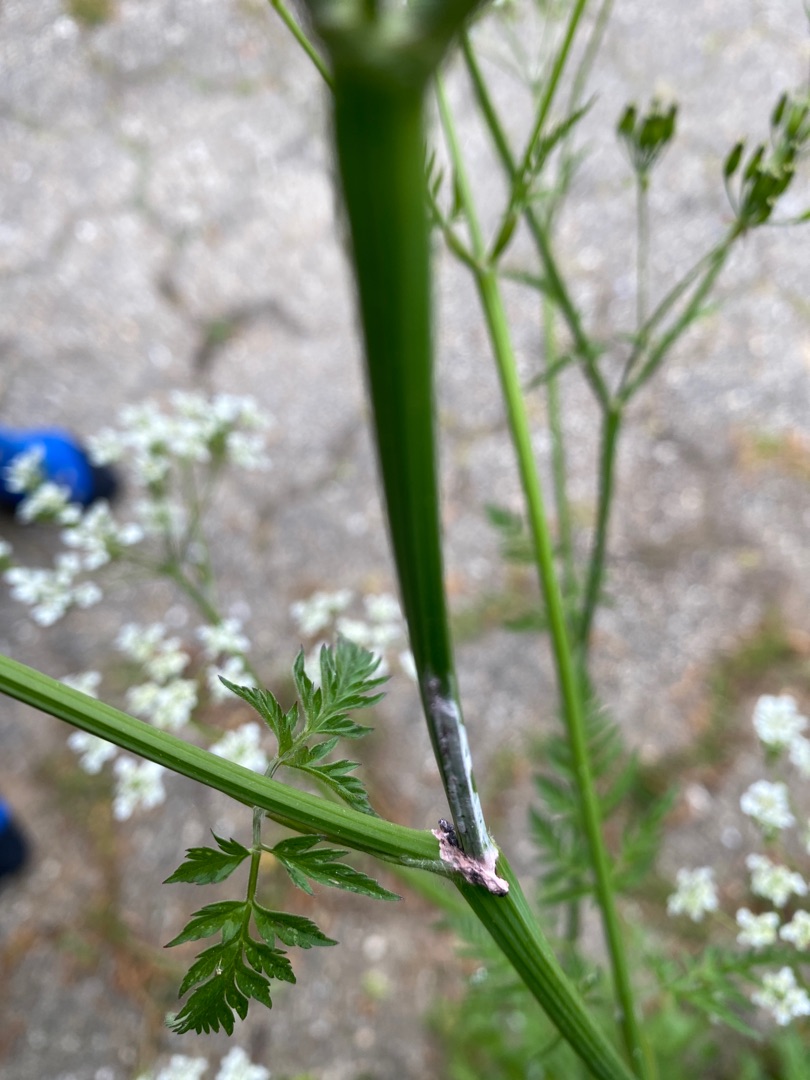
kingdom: Plantae
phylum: Tracheophyta
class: Magnoliopsida
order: Apiales
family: Apiaceae
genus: Anthriscus
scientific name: Anthriscus sylvestris
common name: Vild kørvel
